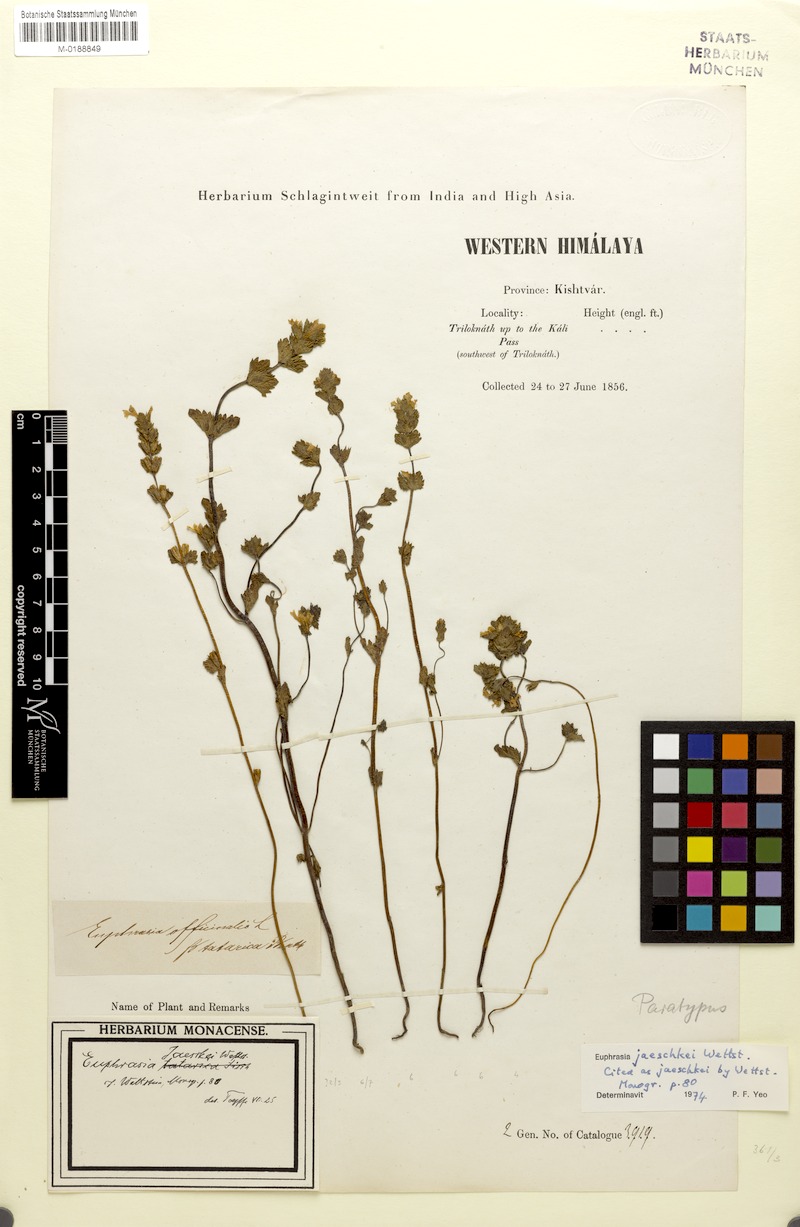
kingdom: Plantae
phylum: Tracheophyta
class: Magnoliopsida
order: Lamiales
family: Orobanchaceae
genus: Euphrasia
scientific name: Euphrasia jaeschkei
